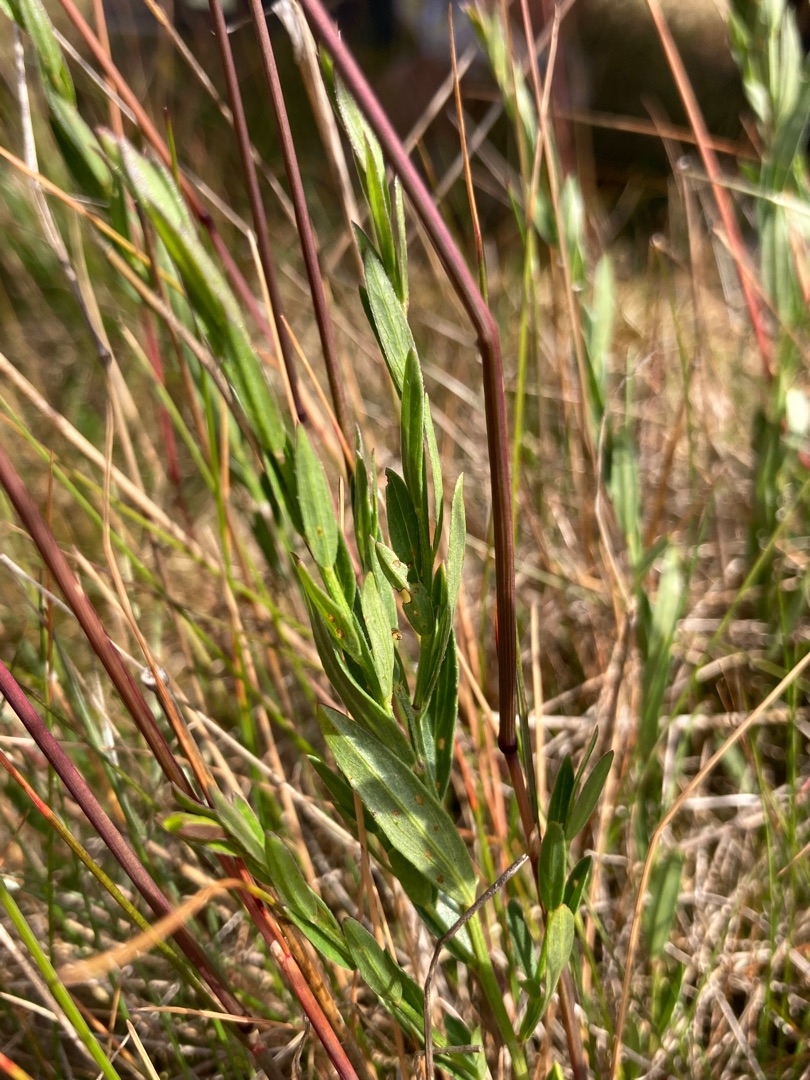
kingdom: Plantae
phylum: Tracheophyta
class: Magnoliopsida
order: Fabales
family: Fabaceae
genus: Genista
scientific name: Genista tinctoria
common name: Farve-visse
